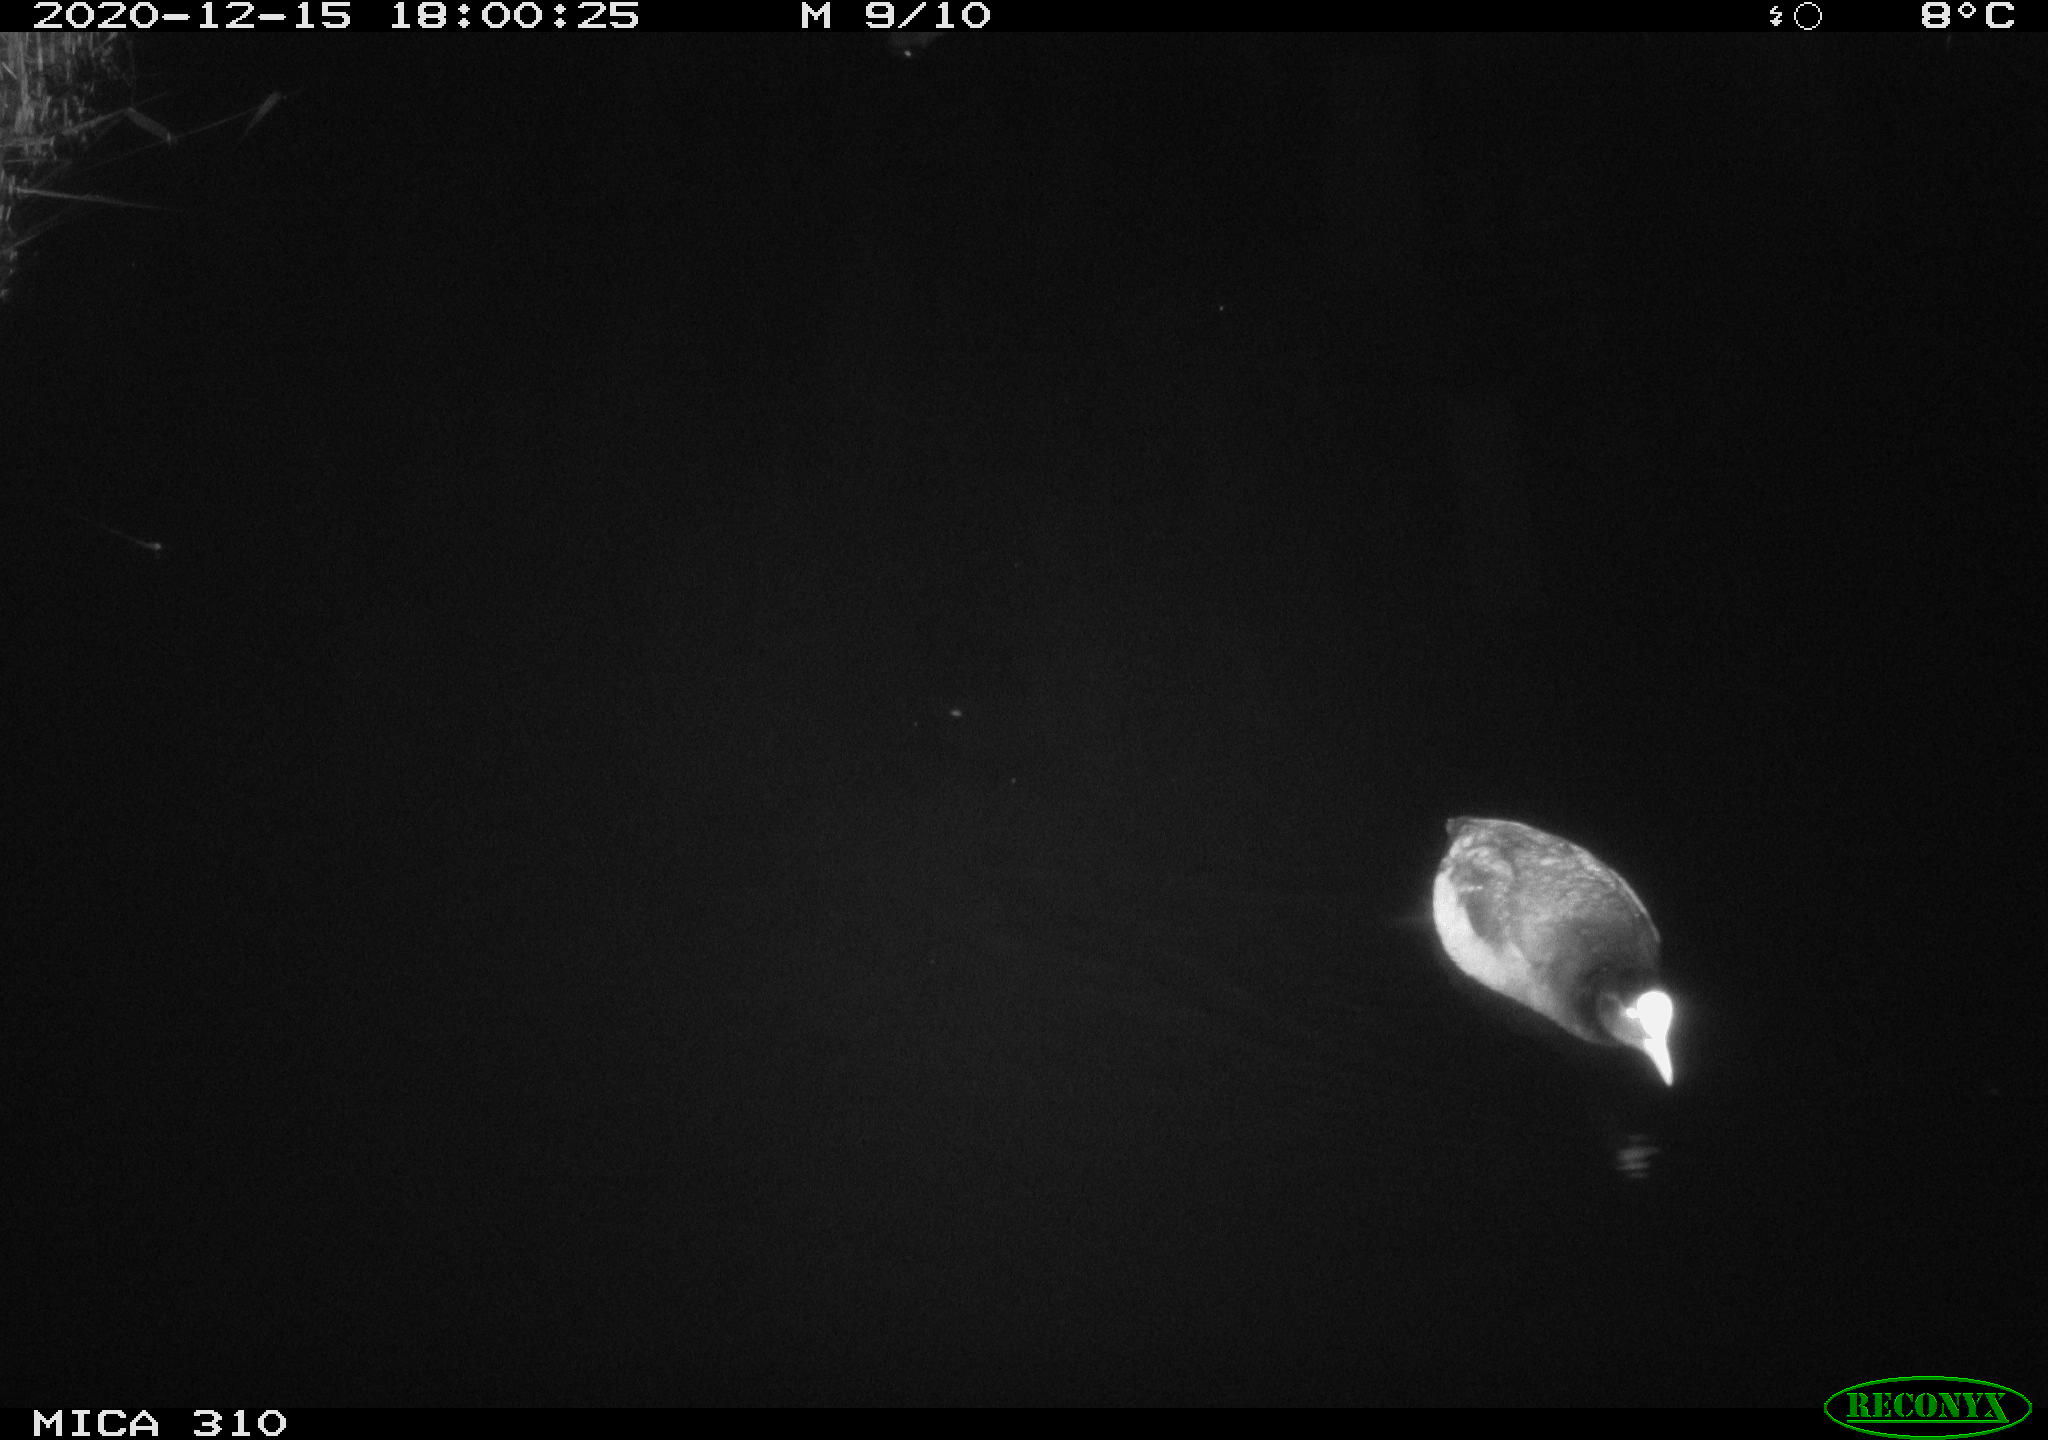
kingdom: Animalia
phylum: Chordata
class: Aves
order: Gruiformes
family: Rallidae
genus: Fulica
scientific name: Fulica atra
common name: Eurasian coot
